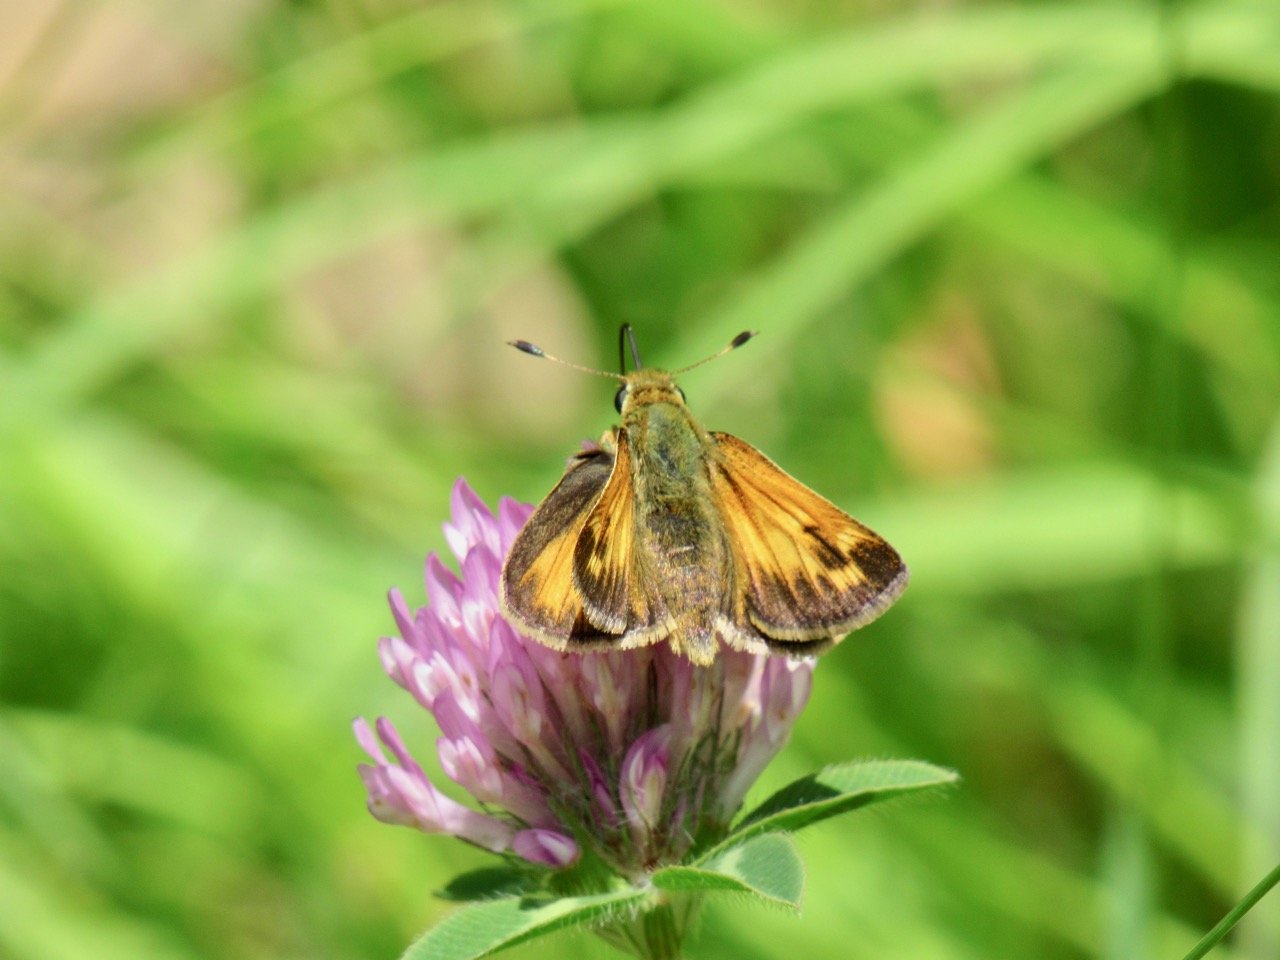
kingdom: Animalia
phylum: Arthropoda
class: Insecta
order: Lepidoptera
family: Hesperiidae
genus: Hesperia
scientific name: Hesperia sassacus
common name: Sassacus Skipper
